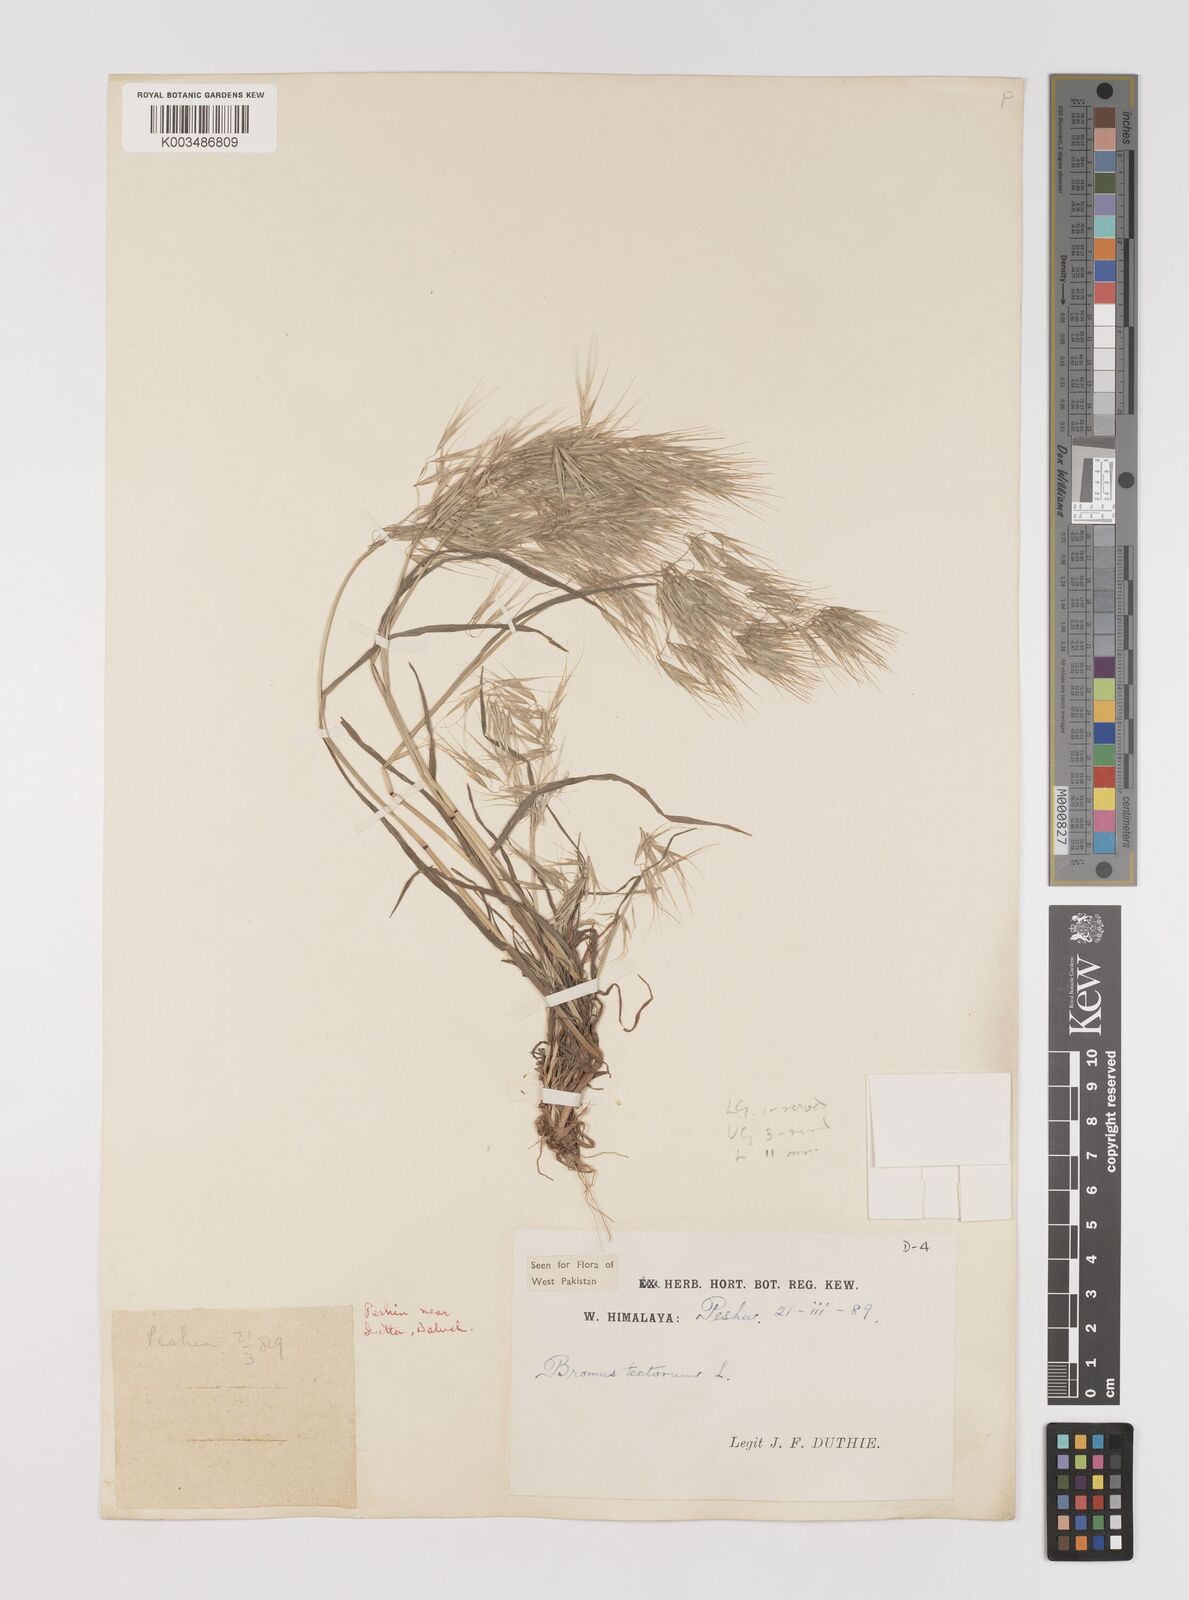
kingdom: Plantae
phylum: Tracheophyta
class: Liliopsida
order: Poales
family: Poaceae
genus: Bromus
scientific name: Bromus tectorum
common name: Cheatgrass
